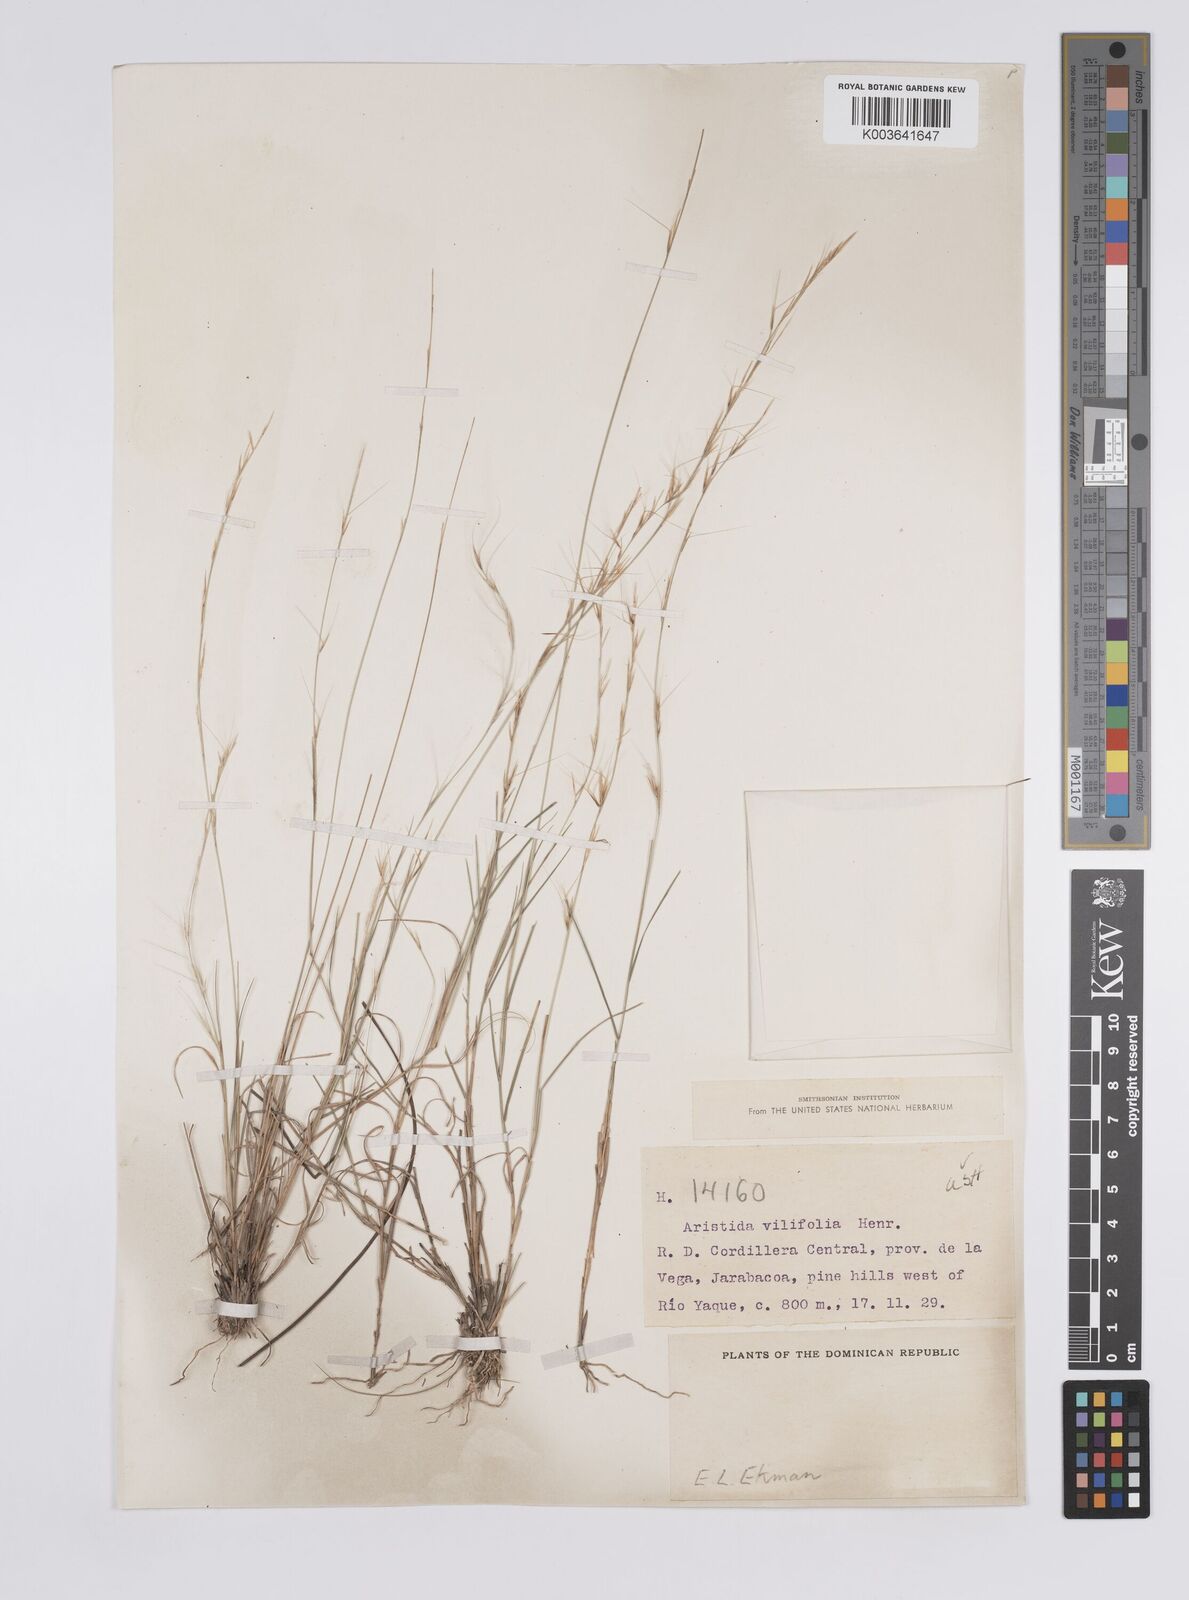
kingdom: Plantae
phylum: Tracheophyta
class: Liliopsida
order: Poales
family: Poaceae
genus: Aristida
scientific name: Aristida vilfifolia
